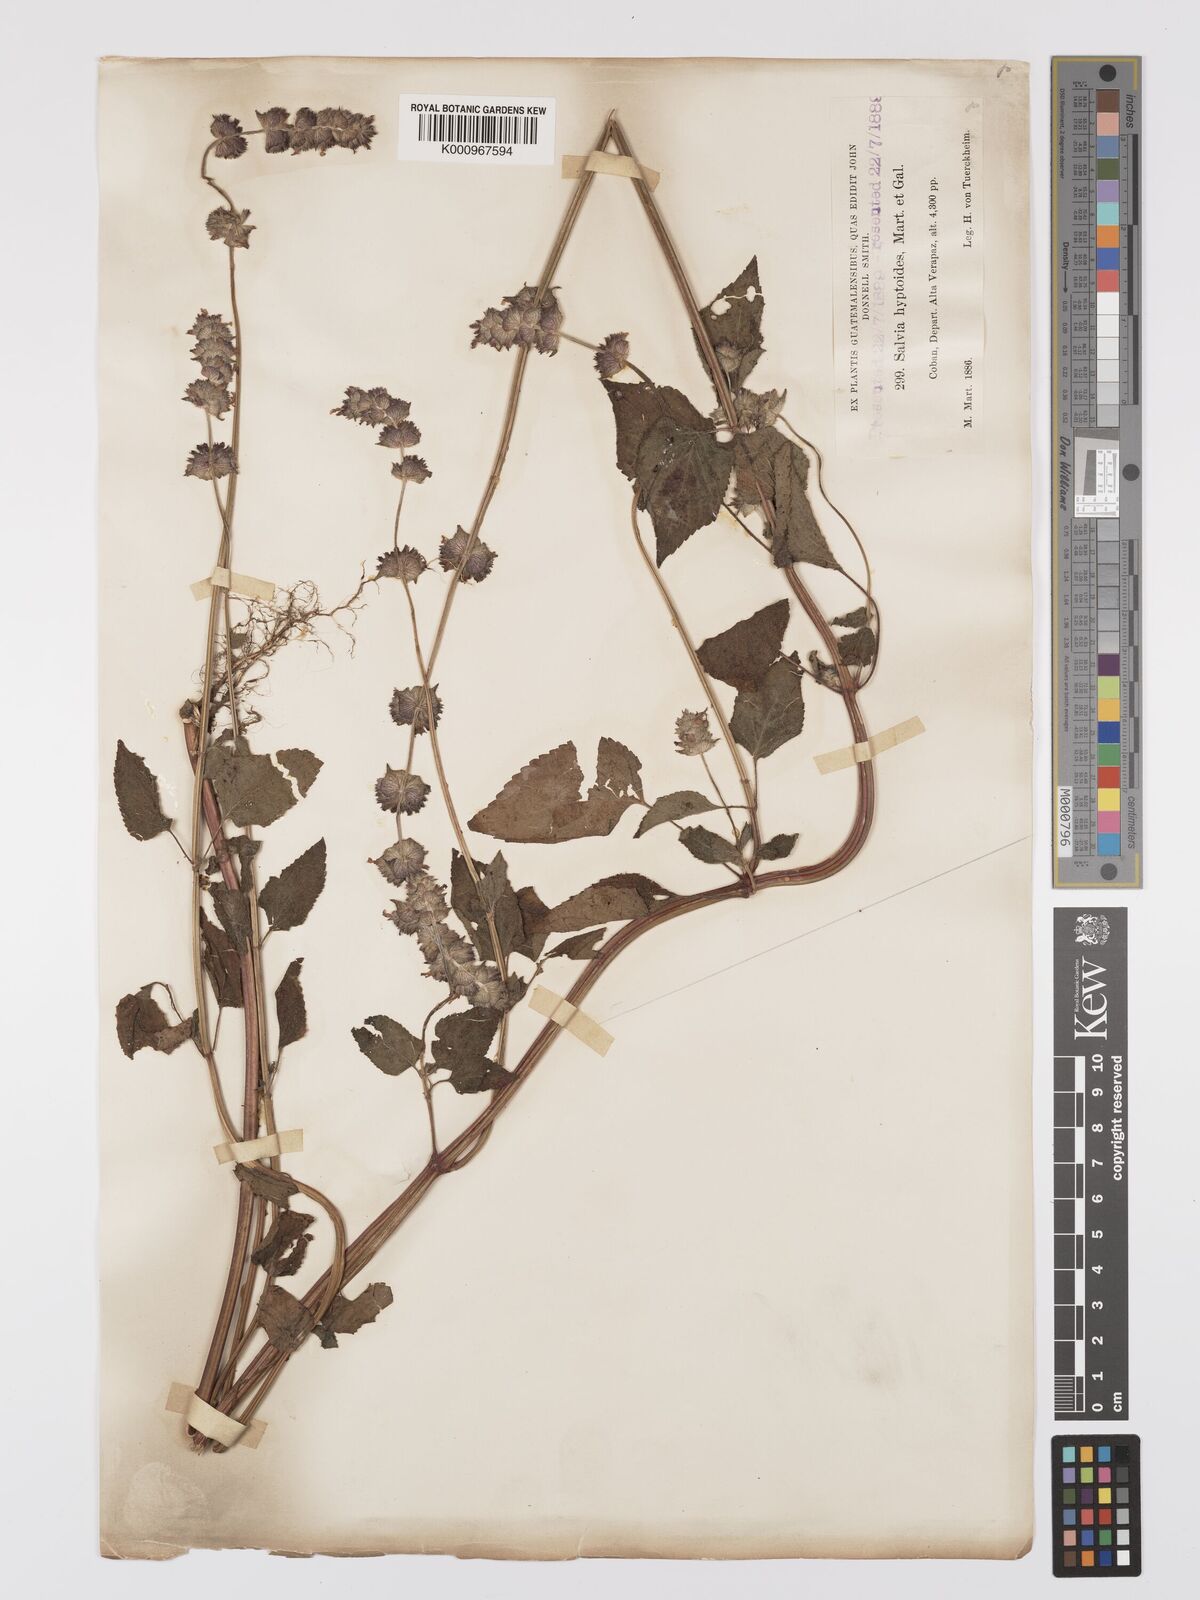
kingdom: Plantae
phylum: Tracheophyta
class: Magnoliopsida
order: Lamiales
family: Lamiaceae
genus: Salvia
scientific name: Salvia elegans
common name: Pineapple sage
